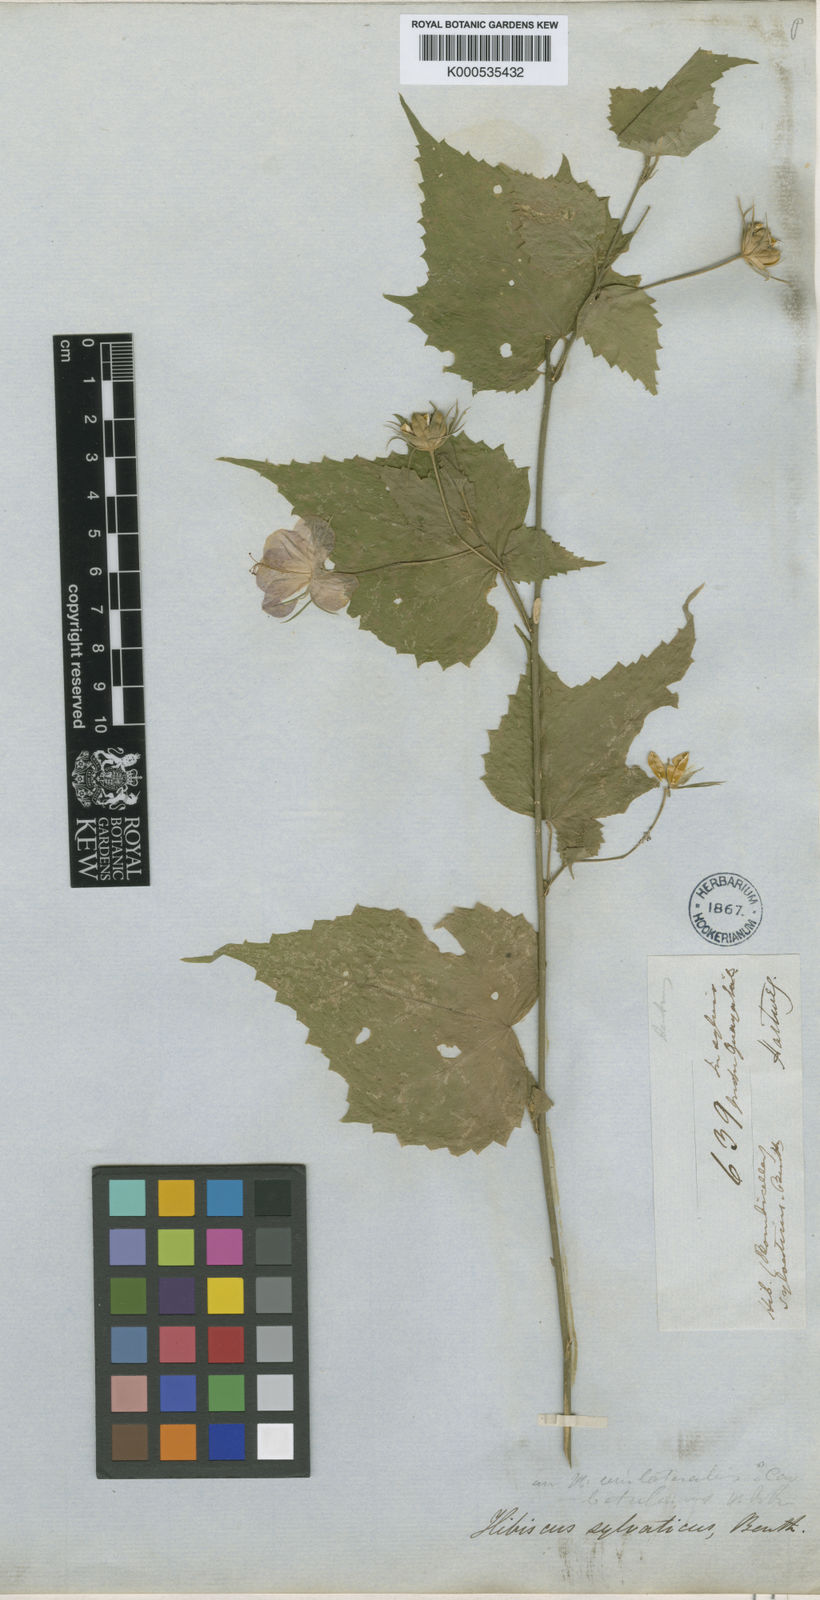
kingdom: Plantae
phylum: Tracheophyta
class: Magnoliopsida
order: Malvales
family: Malvaceae
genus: Hibiscus
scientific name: Hibiscus phoeniceus
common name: Brazilian rosemallow
